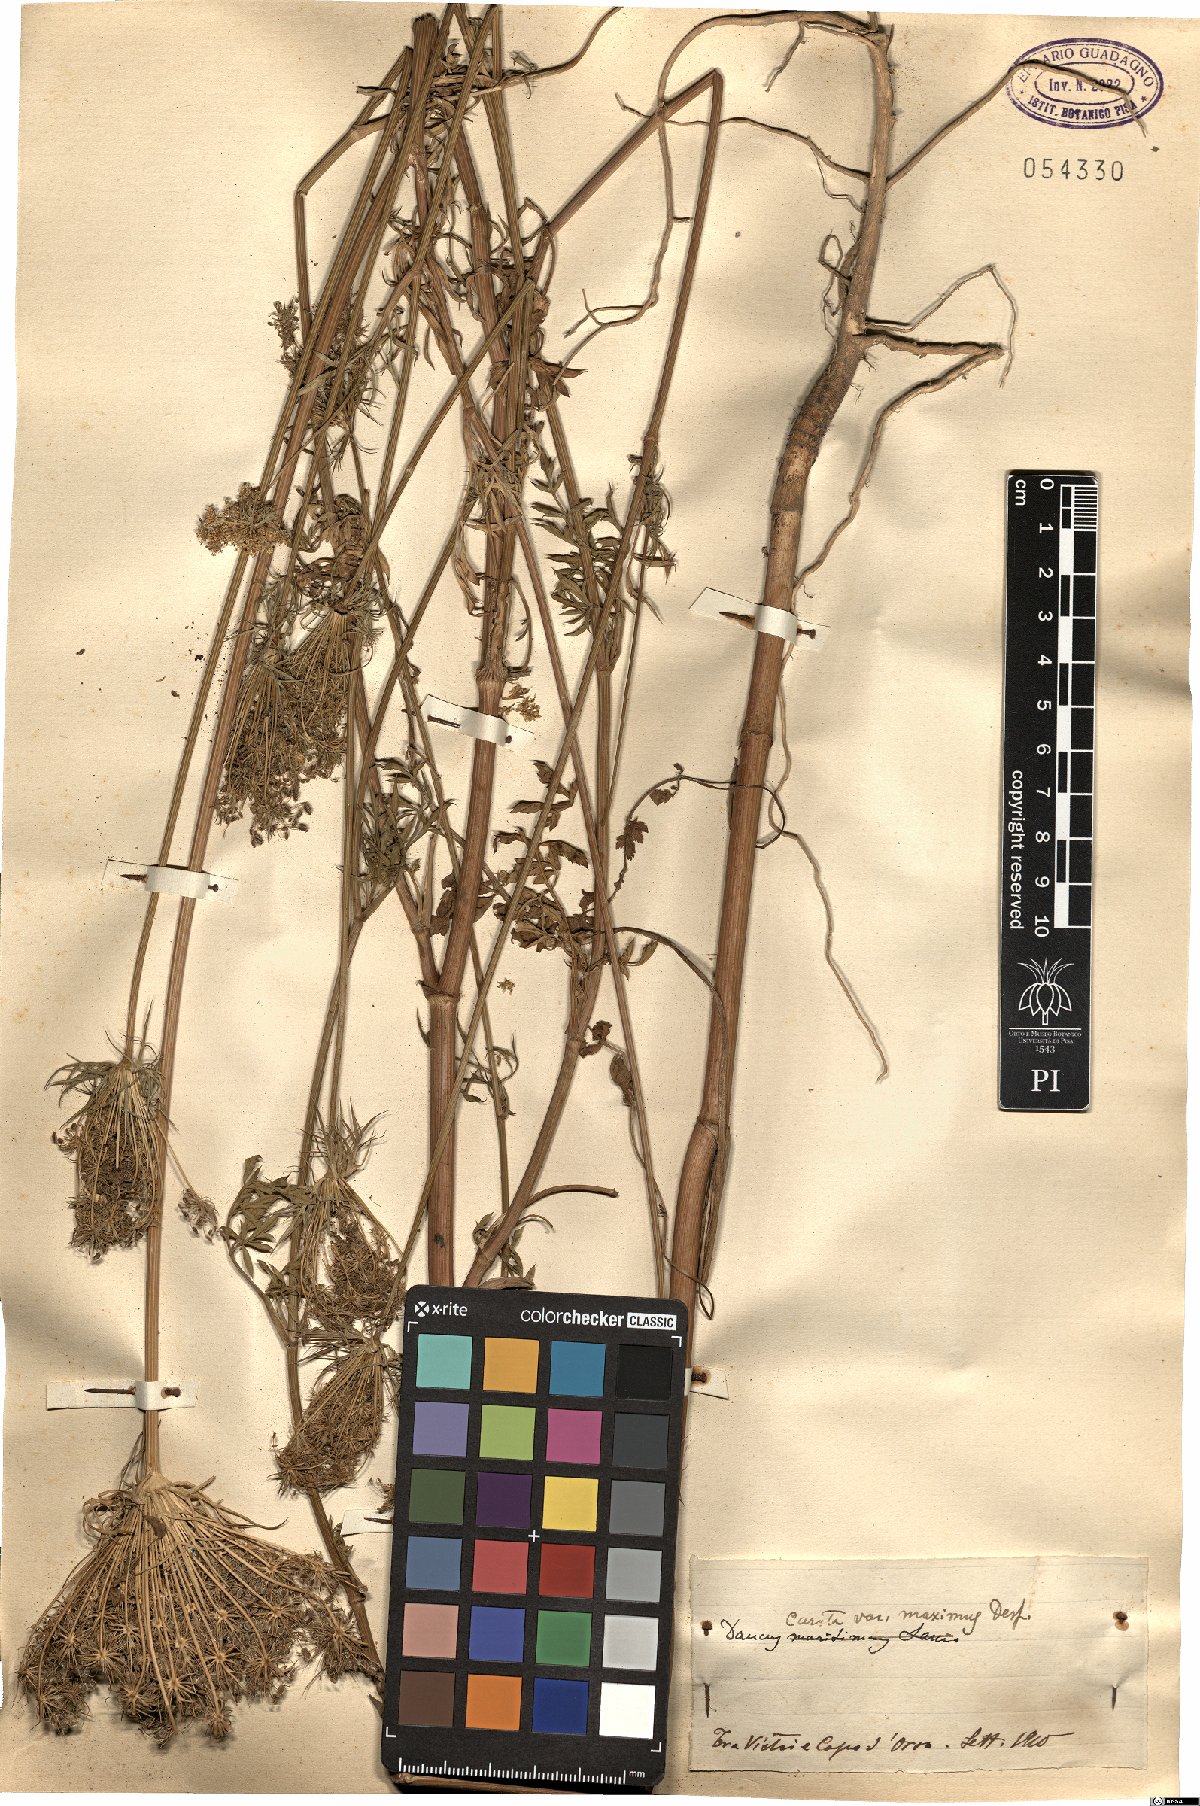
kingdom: Plantae
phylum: Tracheophyta
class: Magnoliopsida
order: Apiales
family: Apiaceae
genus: Daucus
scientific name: Daucus carota
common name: Wild carrot
